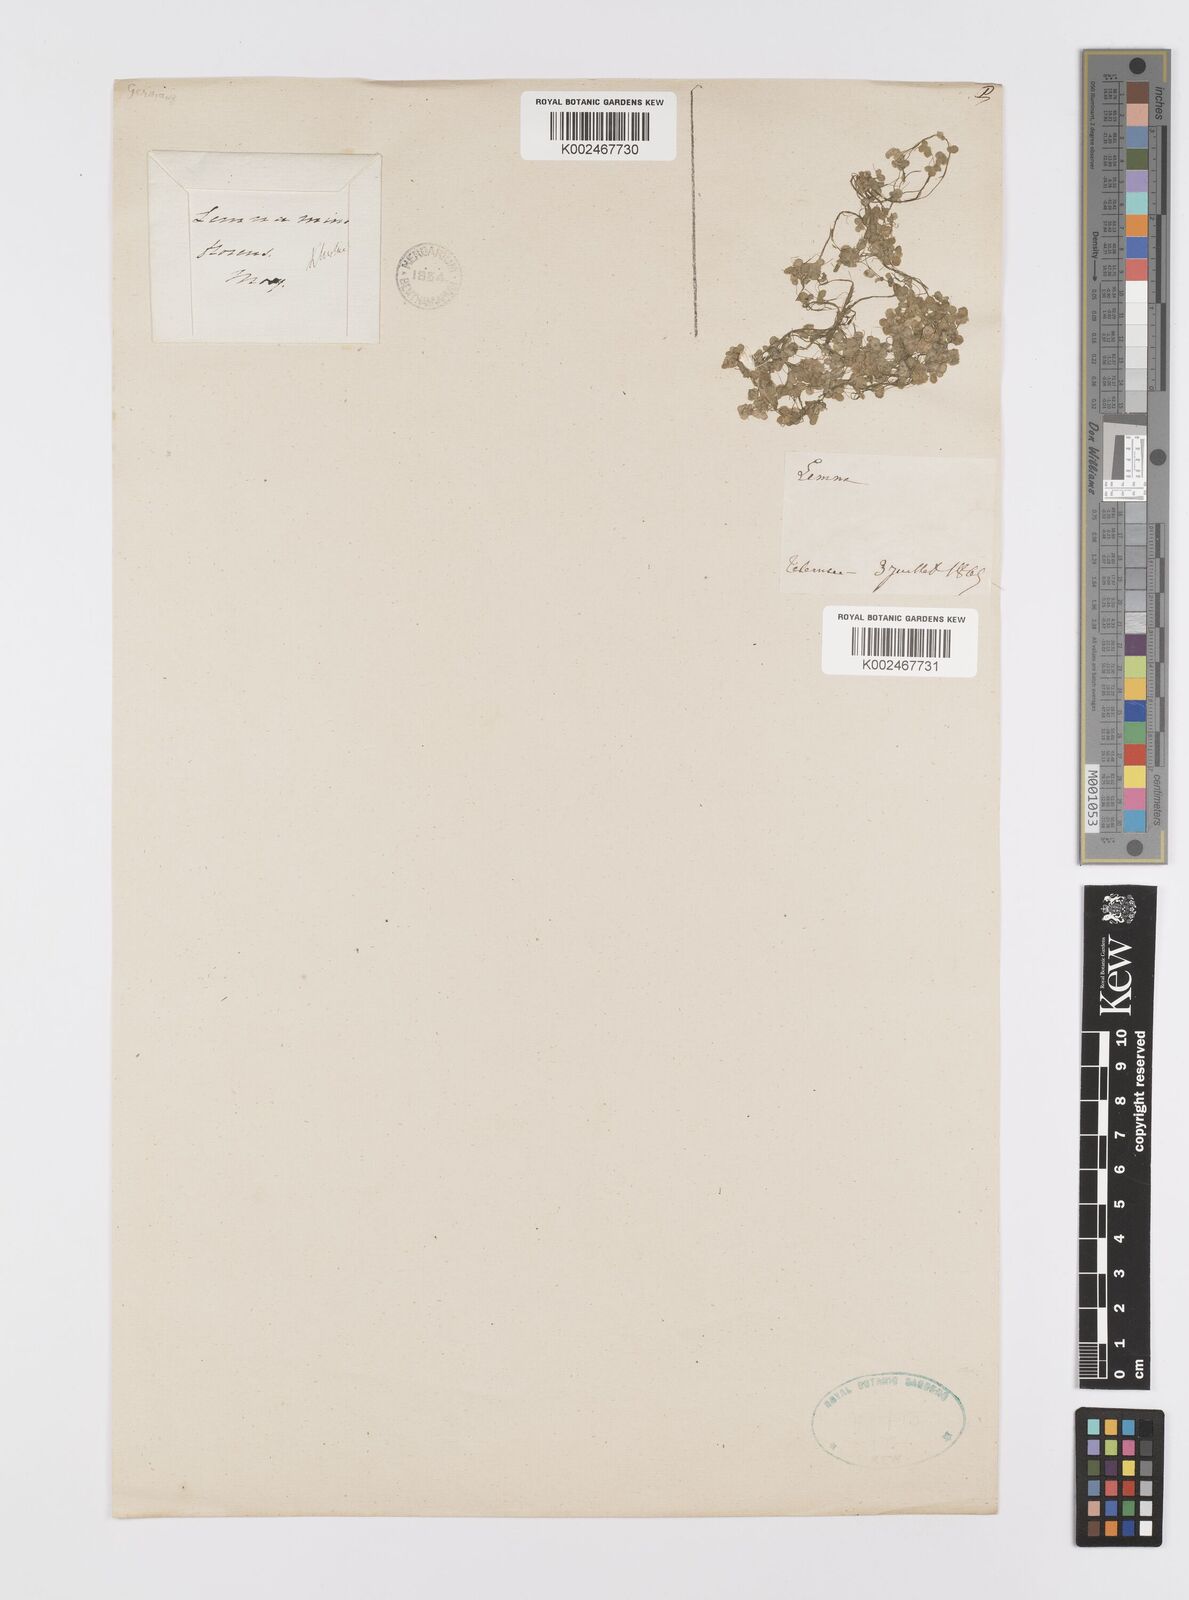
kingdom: Plantae
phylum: Tracheophyta
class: Liliopsida
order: Alismatales
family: Araceae
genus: Lemna
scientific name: Lemna minor
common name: Common duckweed
